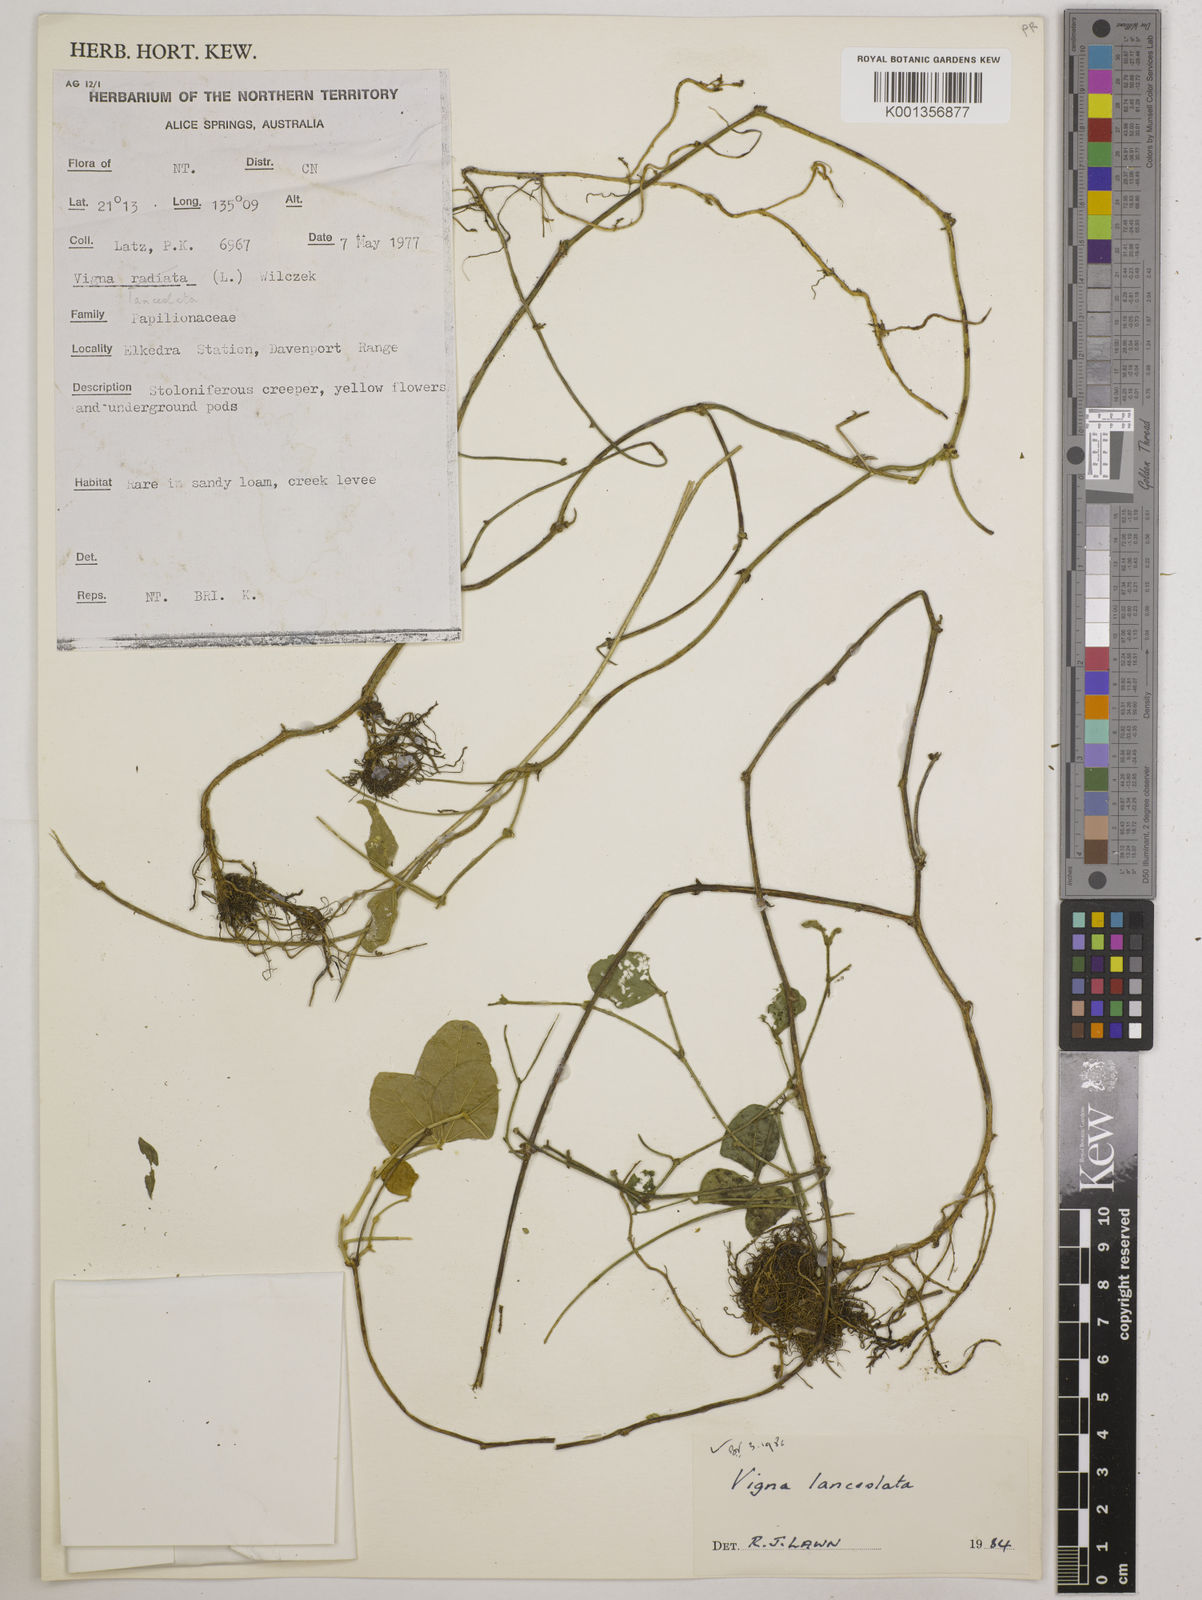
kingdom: Plantae
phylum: Tracheophyta
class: Magnoliopsida
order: Fabales
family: Fabaceae
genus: Vigna
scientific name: Vigna lanceolata
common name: Maloga-bean
